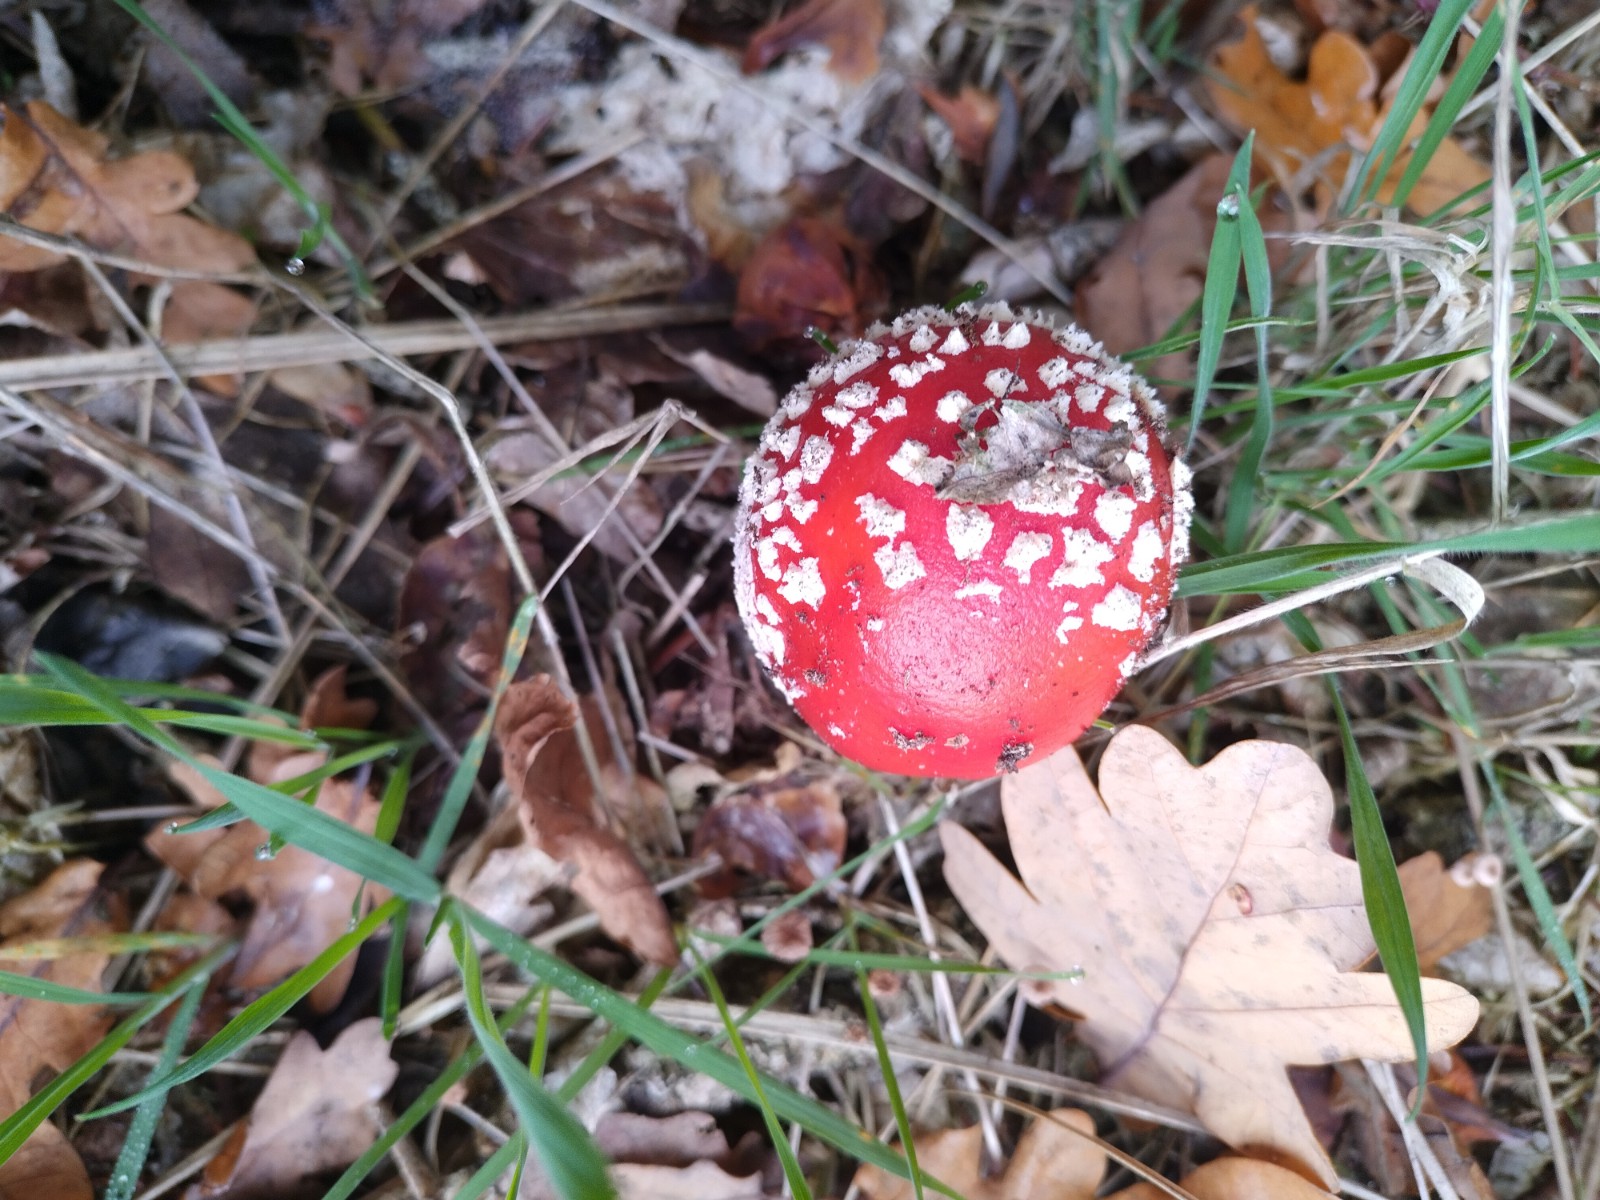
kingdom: Fungi
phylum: Basidiomycota
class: Agaricomycetes
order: Agaricales
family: Amanitaceae
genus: Amanita
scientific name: Amanita muscaria
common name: rød fluesvamp
